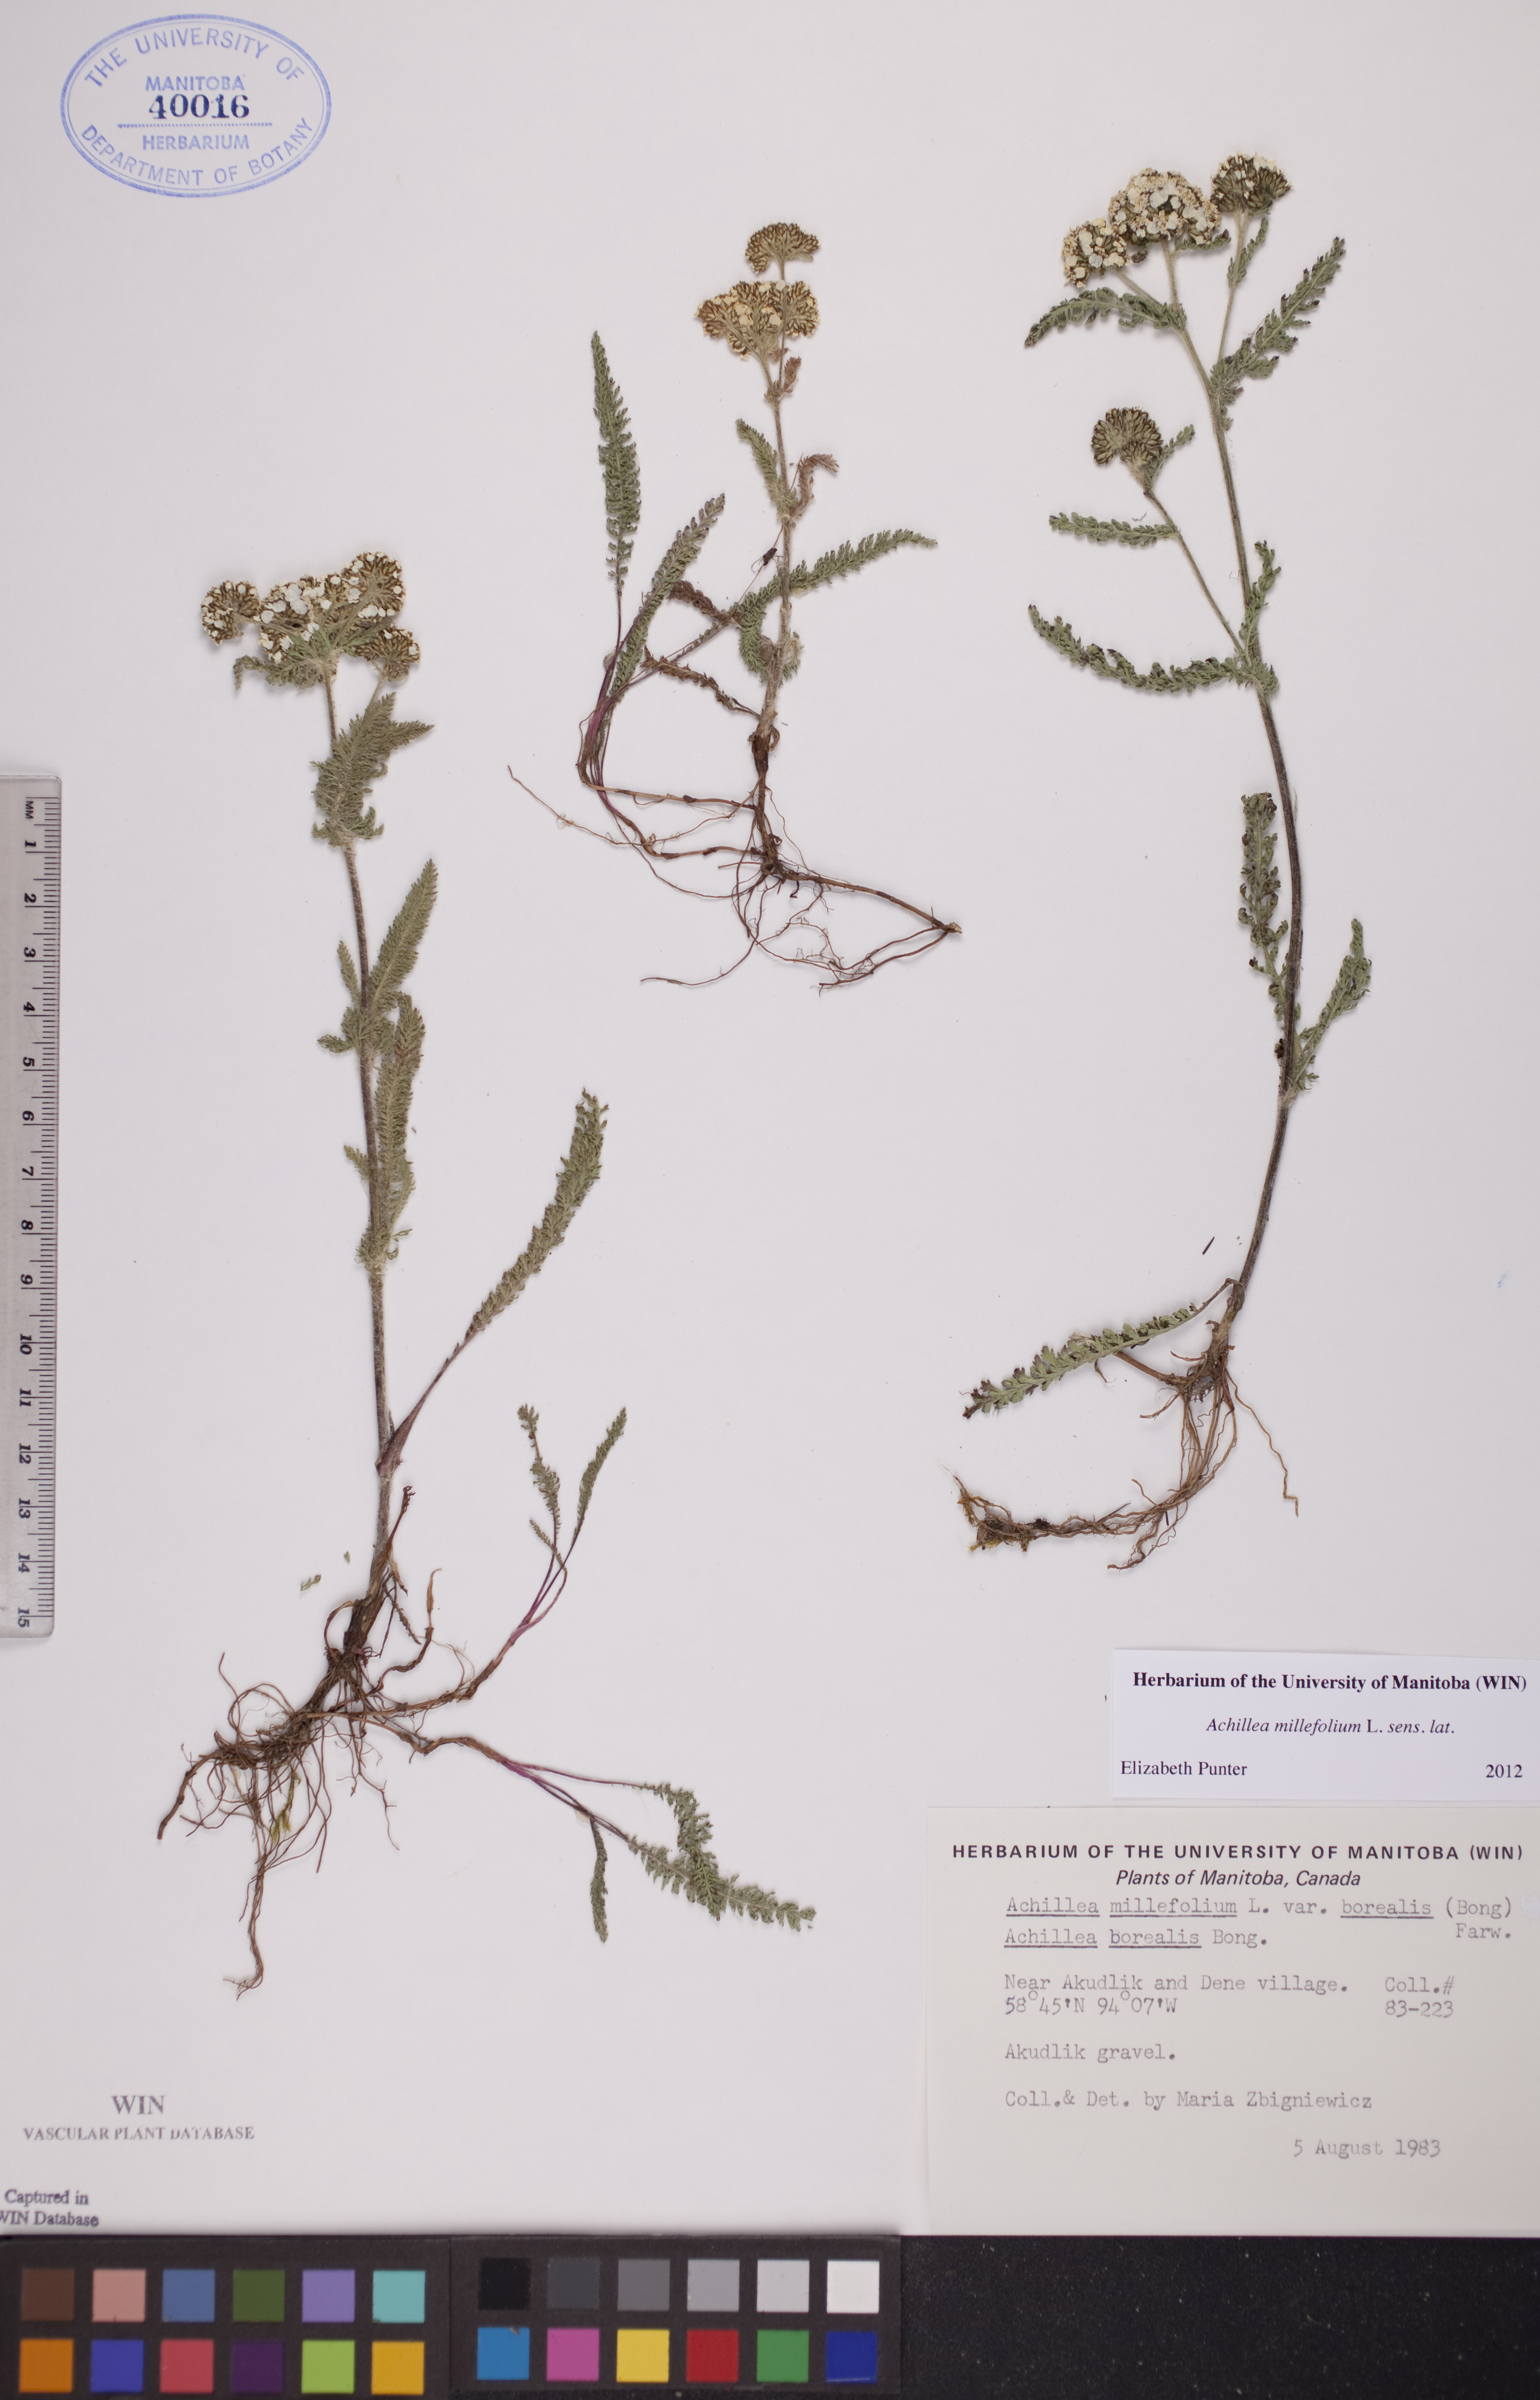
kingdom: Plantae
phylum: Tracheophyta
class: Magnoliopsida
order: Asterales
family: Asteraceae
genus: Achillea
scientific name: Achillea millefolium
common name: Yarrow
